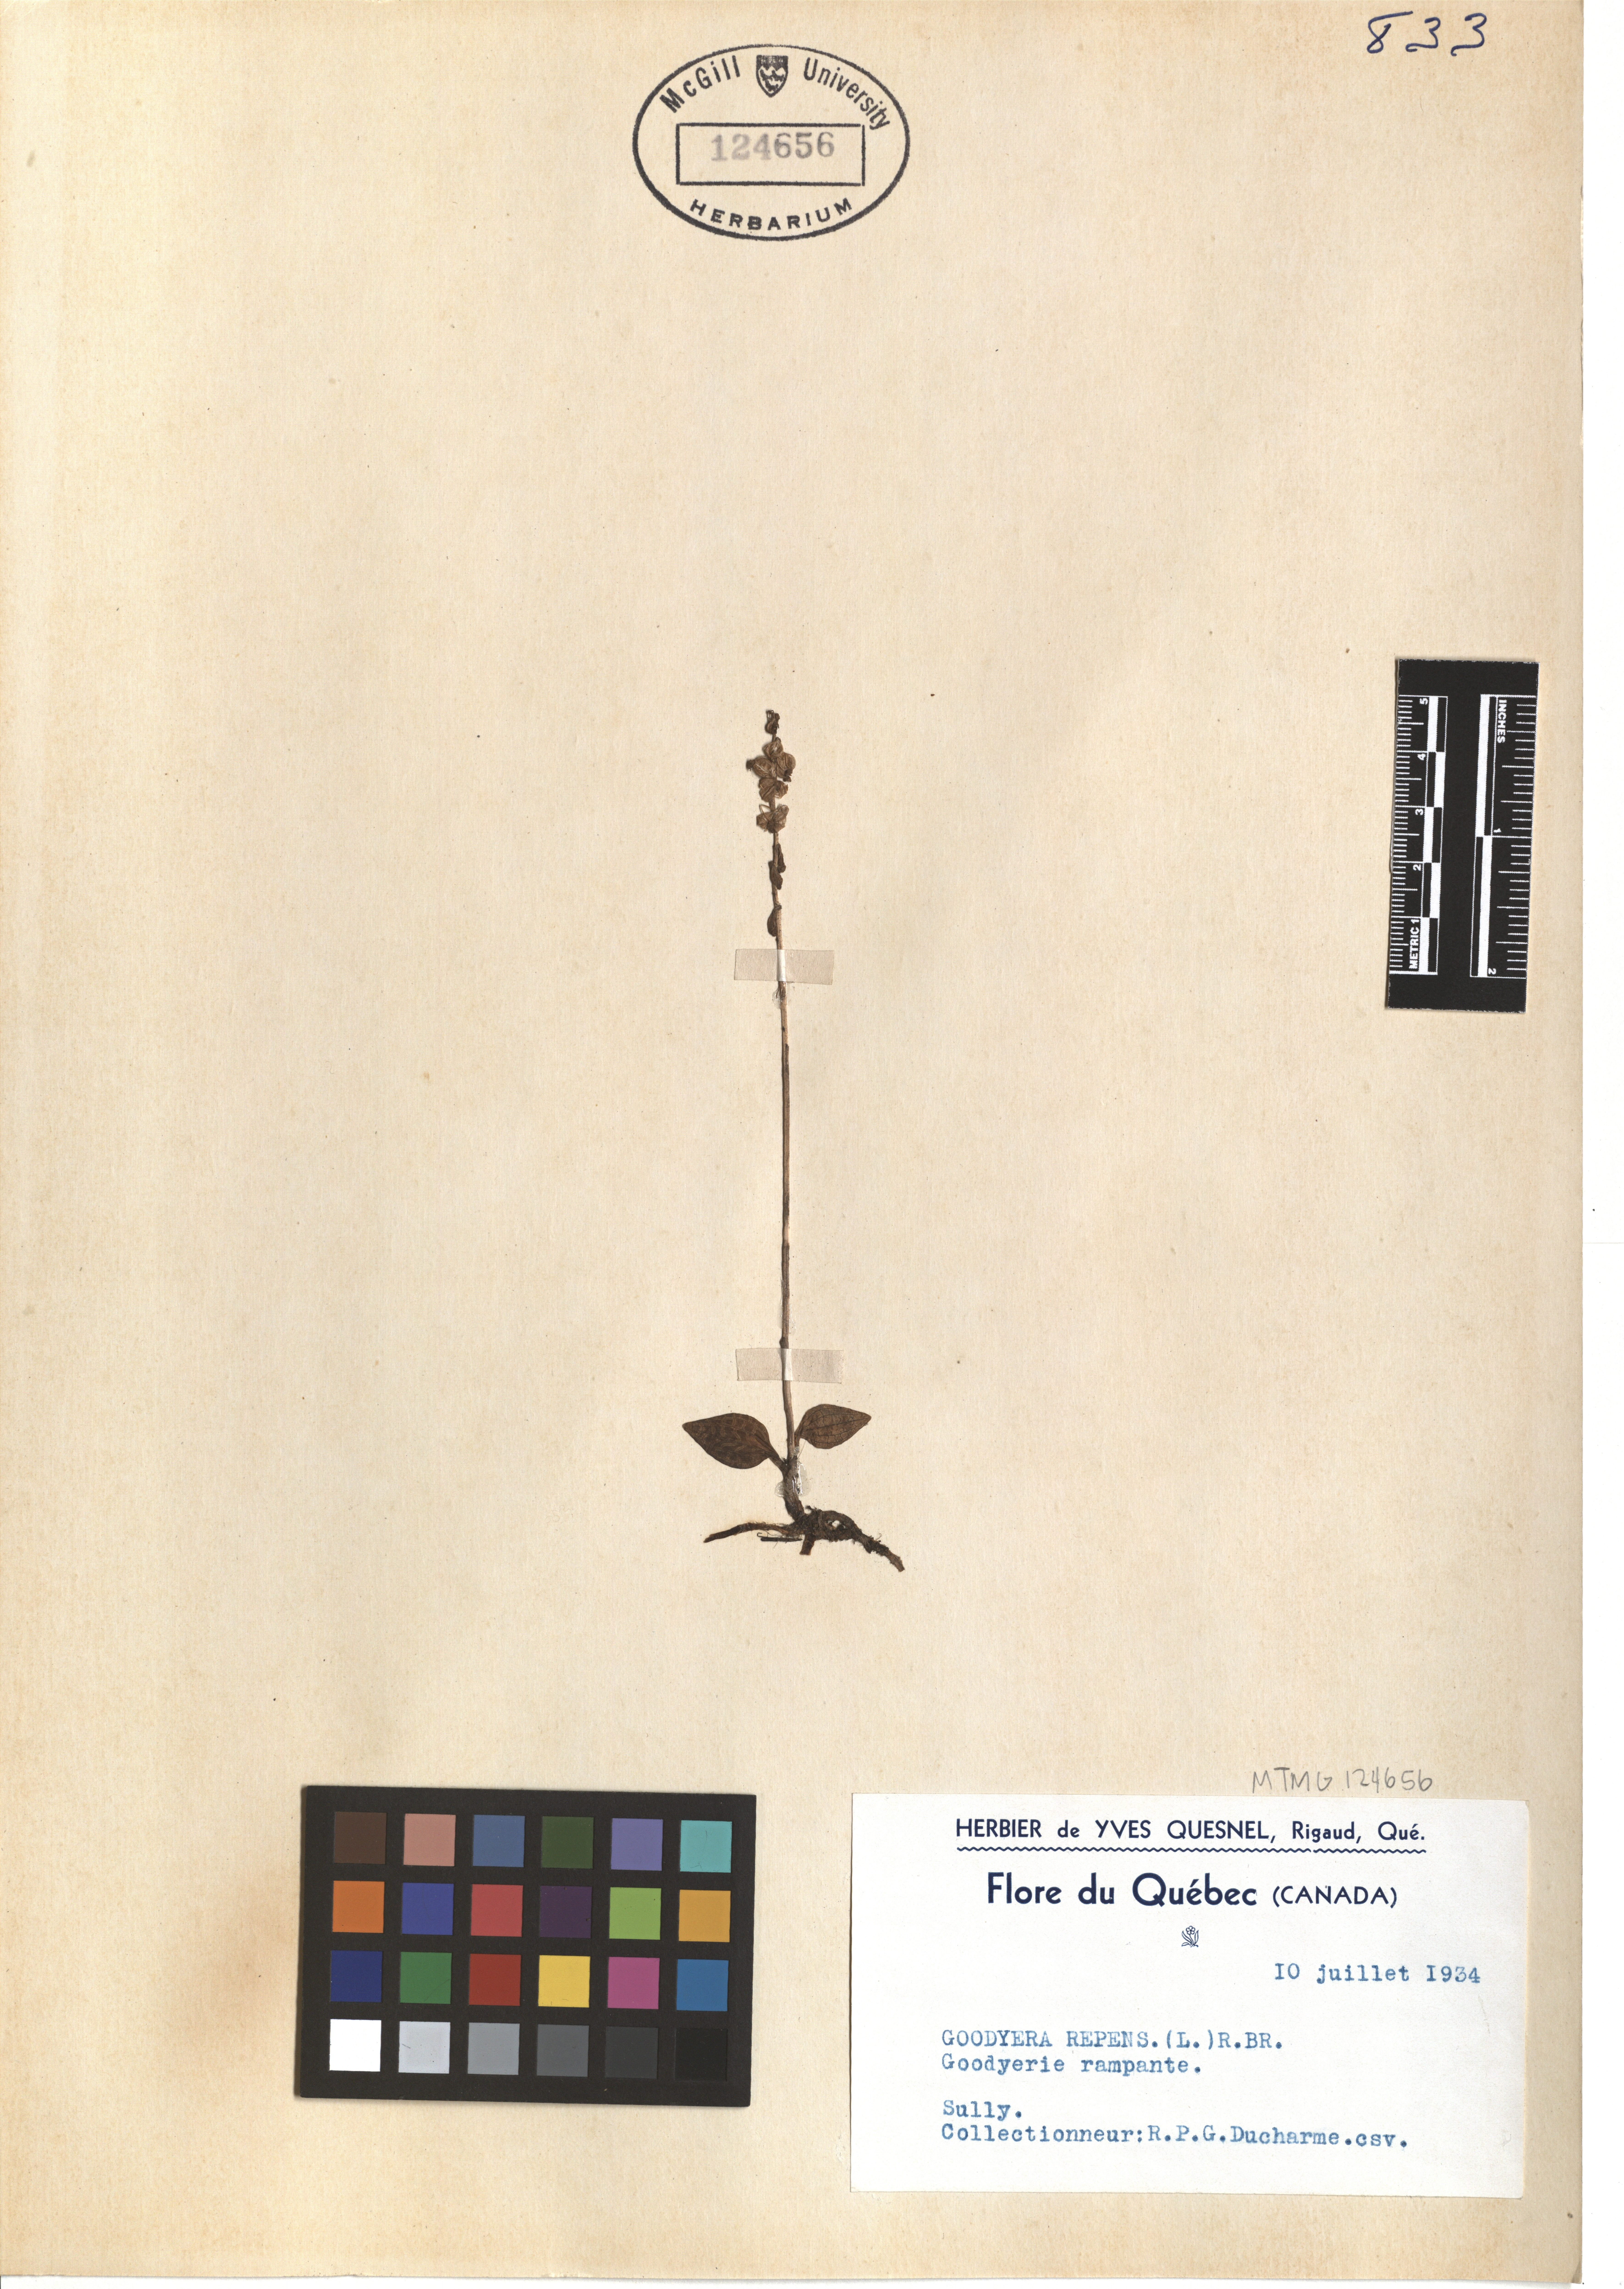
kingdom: Plantae
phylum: Tracheophyta
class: Liliopsida
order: Asparagales
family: Orchidaceae
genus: Goodyera
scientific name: Goodyera repens
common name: Creeping lady's-tresses
